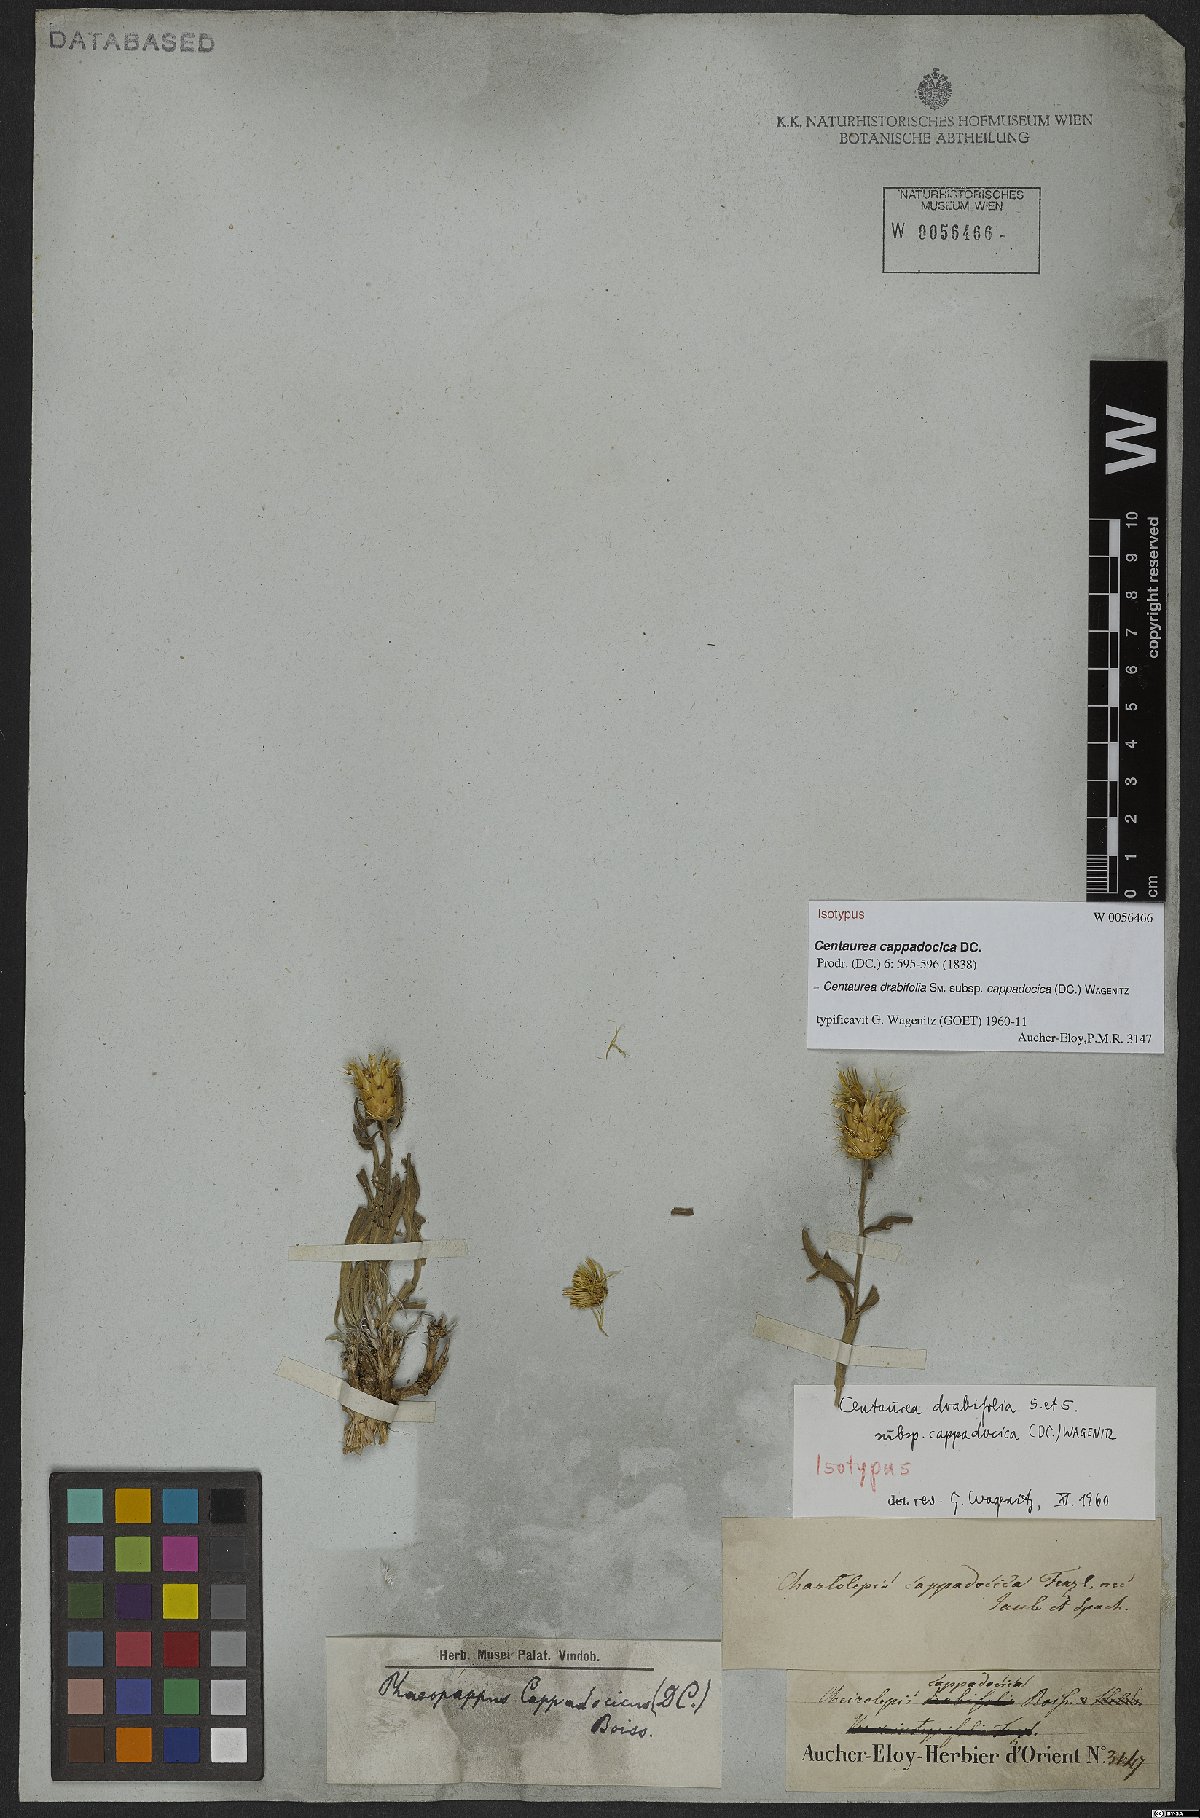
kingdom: Plantae
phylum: Tracheophyta
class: Magnoliopsida
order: Asterales
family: Asteraceae
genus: Centaurea
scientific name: Centaurea drabifolia
